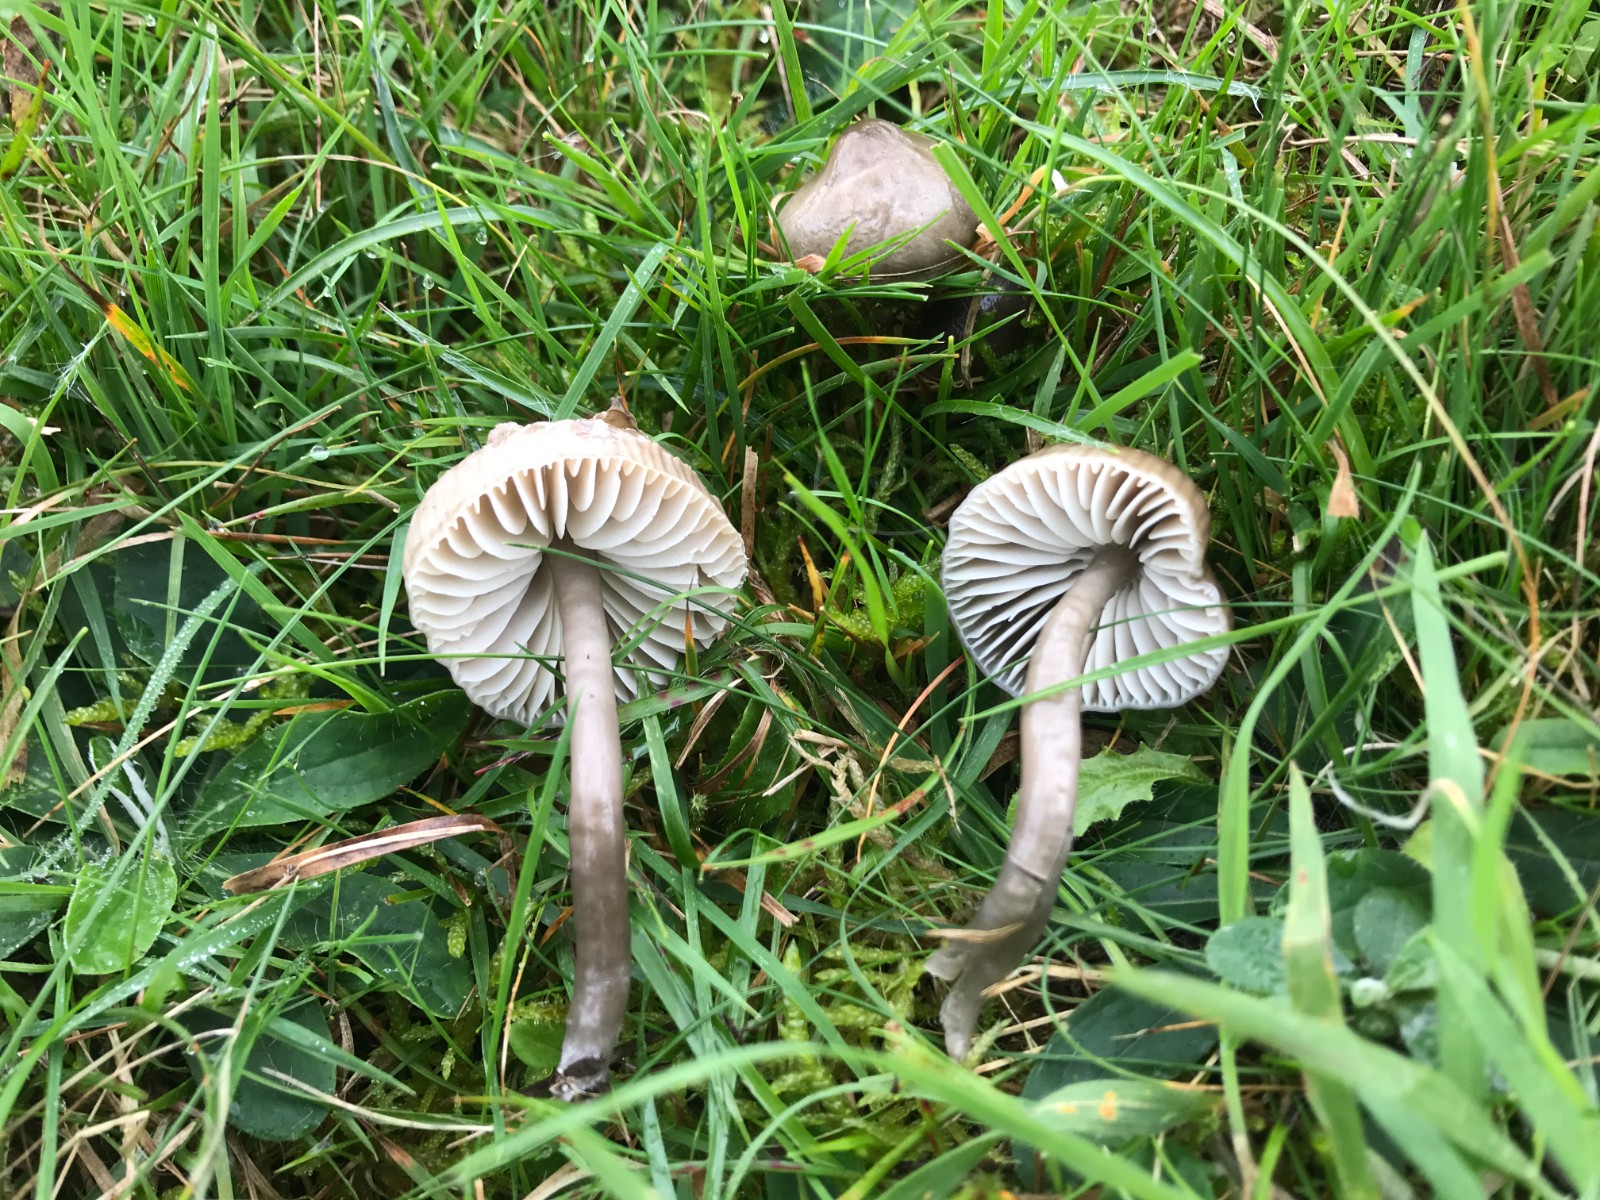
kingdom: Fungi
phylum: Basidiomycota
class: Agaricomycetes
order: Agaricales
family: Hygrophoraceae
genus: Gliophorus
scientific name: Gliophorus irrigatus
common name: slimet vokshat
